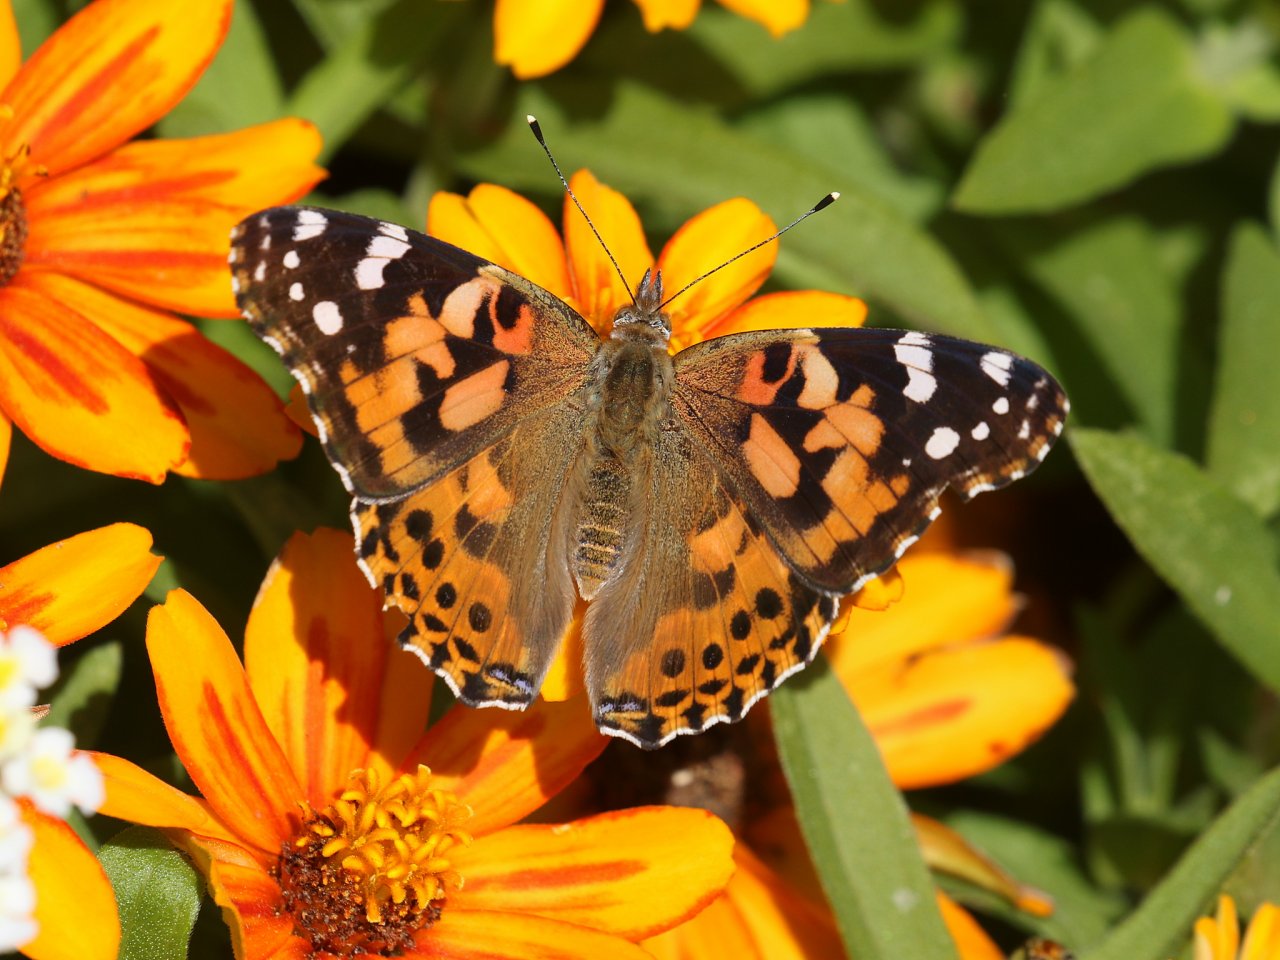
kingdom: Animalia
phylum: Arthropoda
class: Insecta
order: Lepidoptera
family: Nymphalidae
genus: Vanessa
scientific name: Vanessa cardui
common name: Painted Lady
